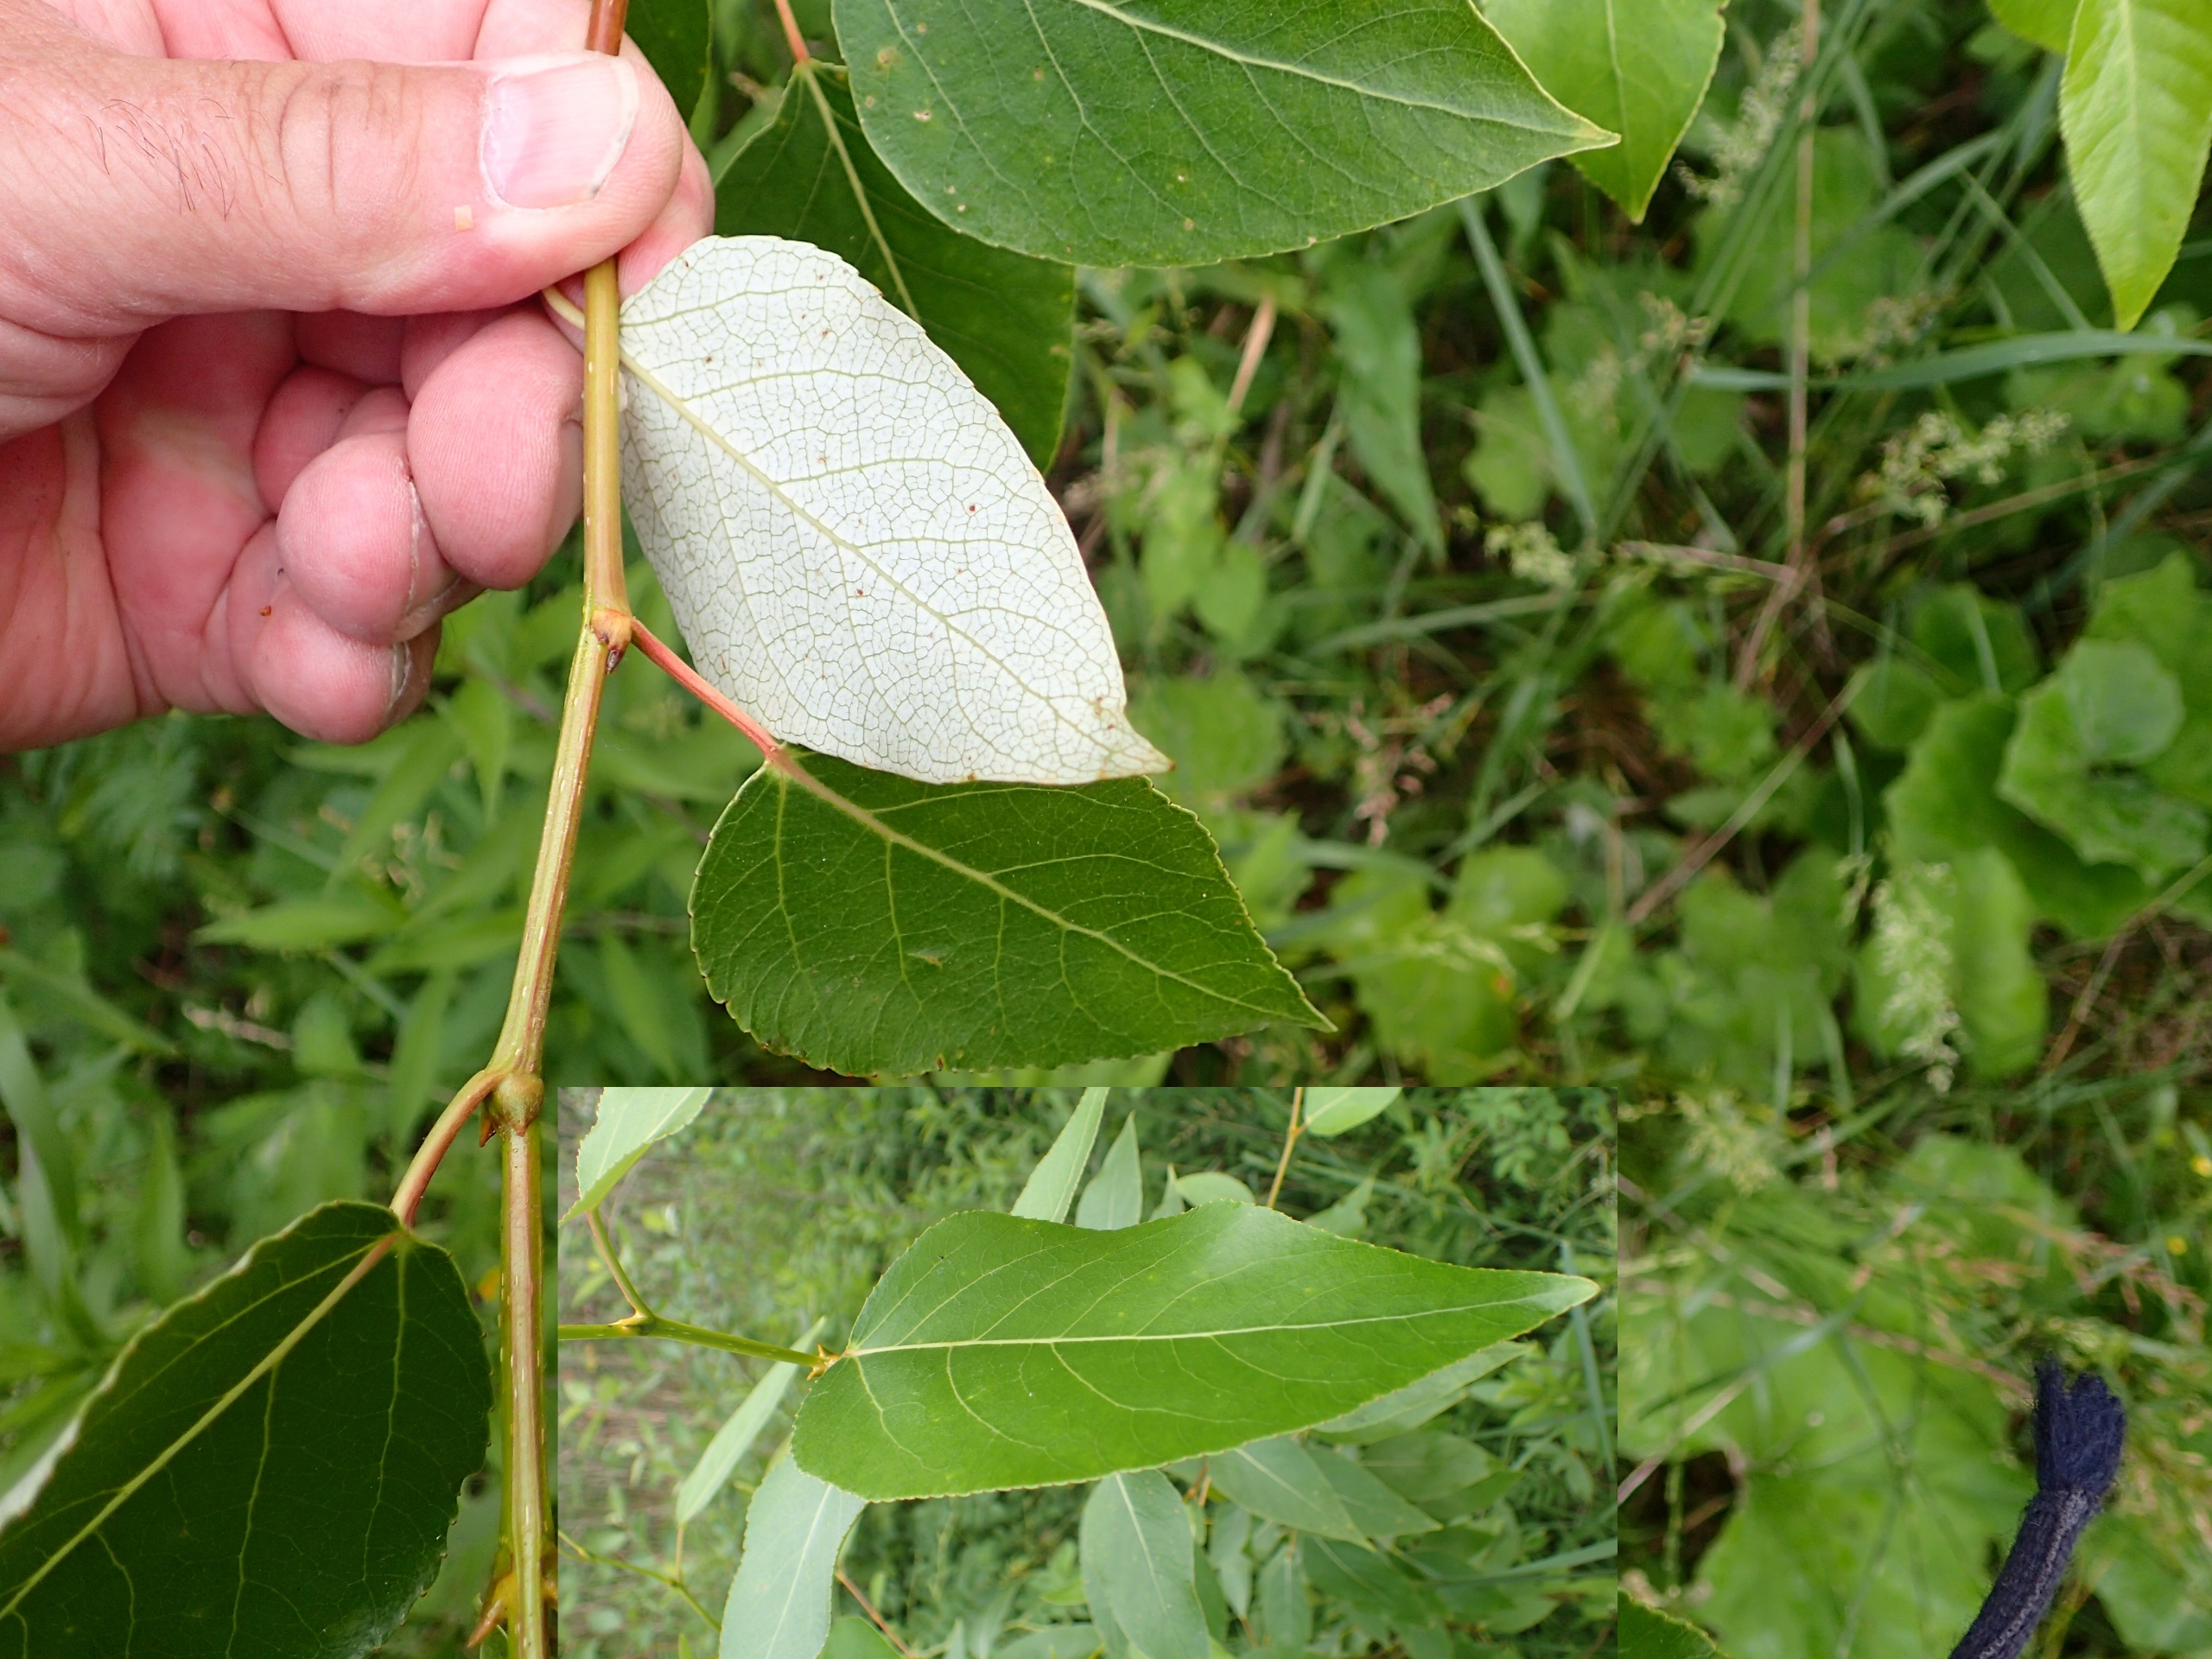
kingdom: Plantae
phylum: Tracheophyta
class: Magnoliopsida
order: Malpighiales
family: Salicaceae
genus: Populus
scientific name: Populus trichocarpa
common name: Vestamerikansk poppel
